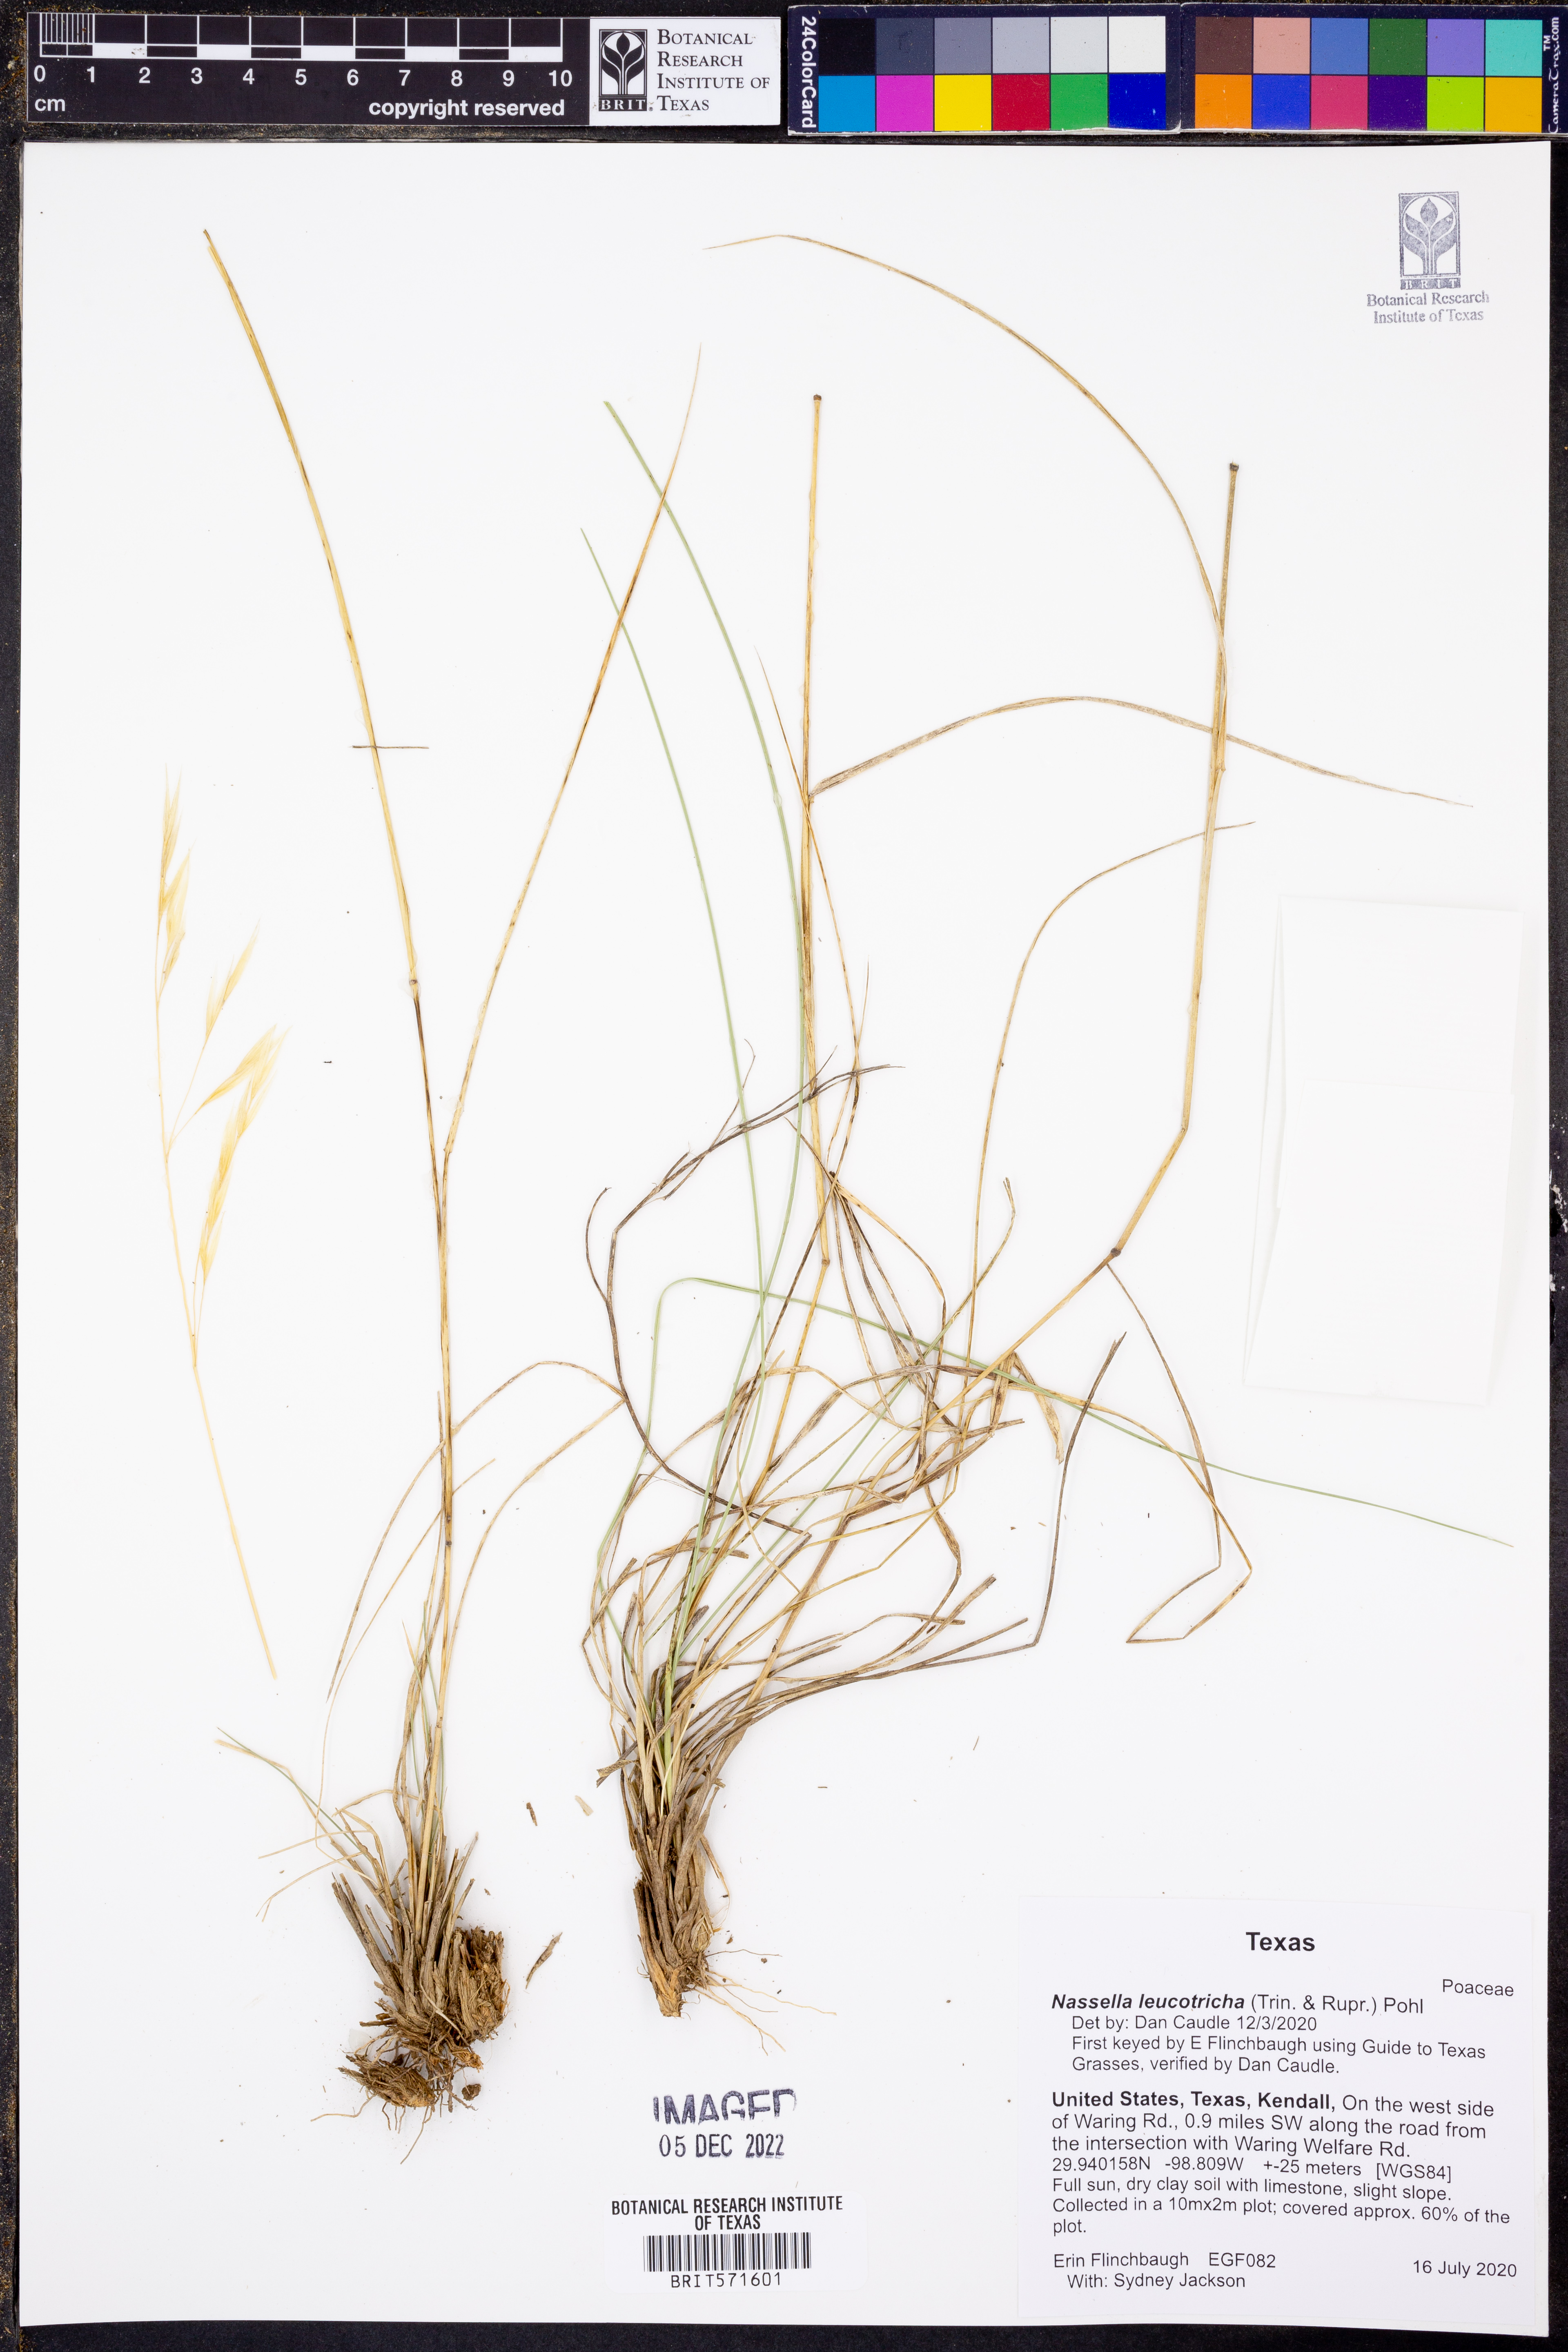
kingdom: Plantae
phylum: Tracheophyta
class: Liliopsida
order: Poales
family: Poaceae
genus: Nassella
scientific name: Nassella leucotricha
